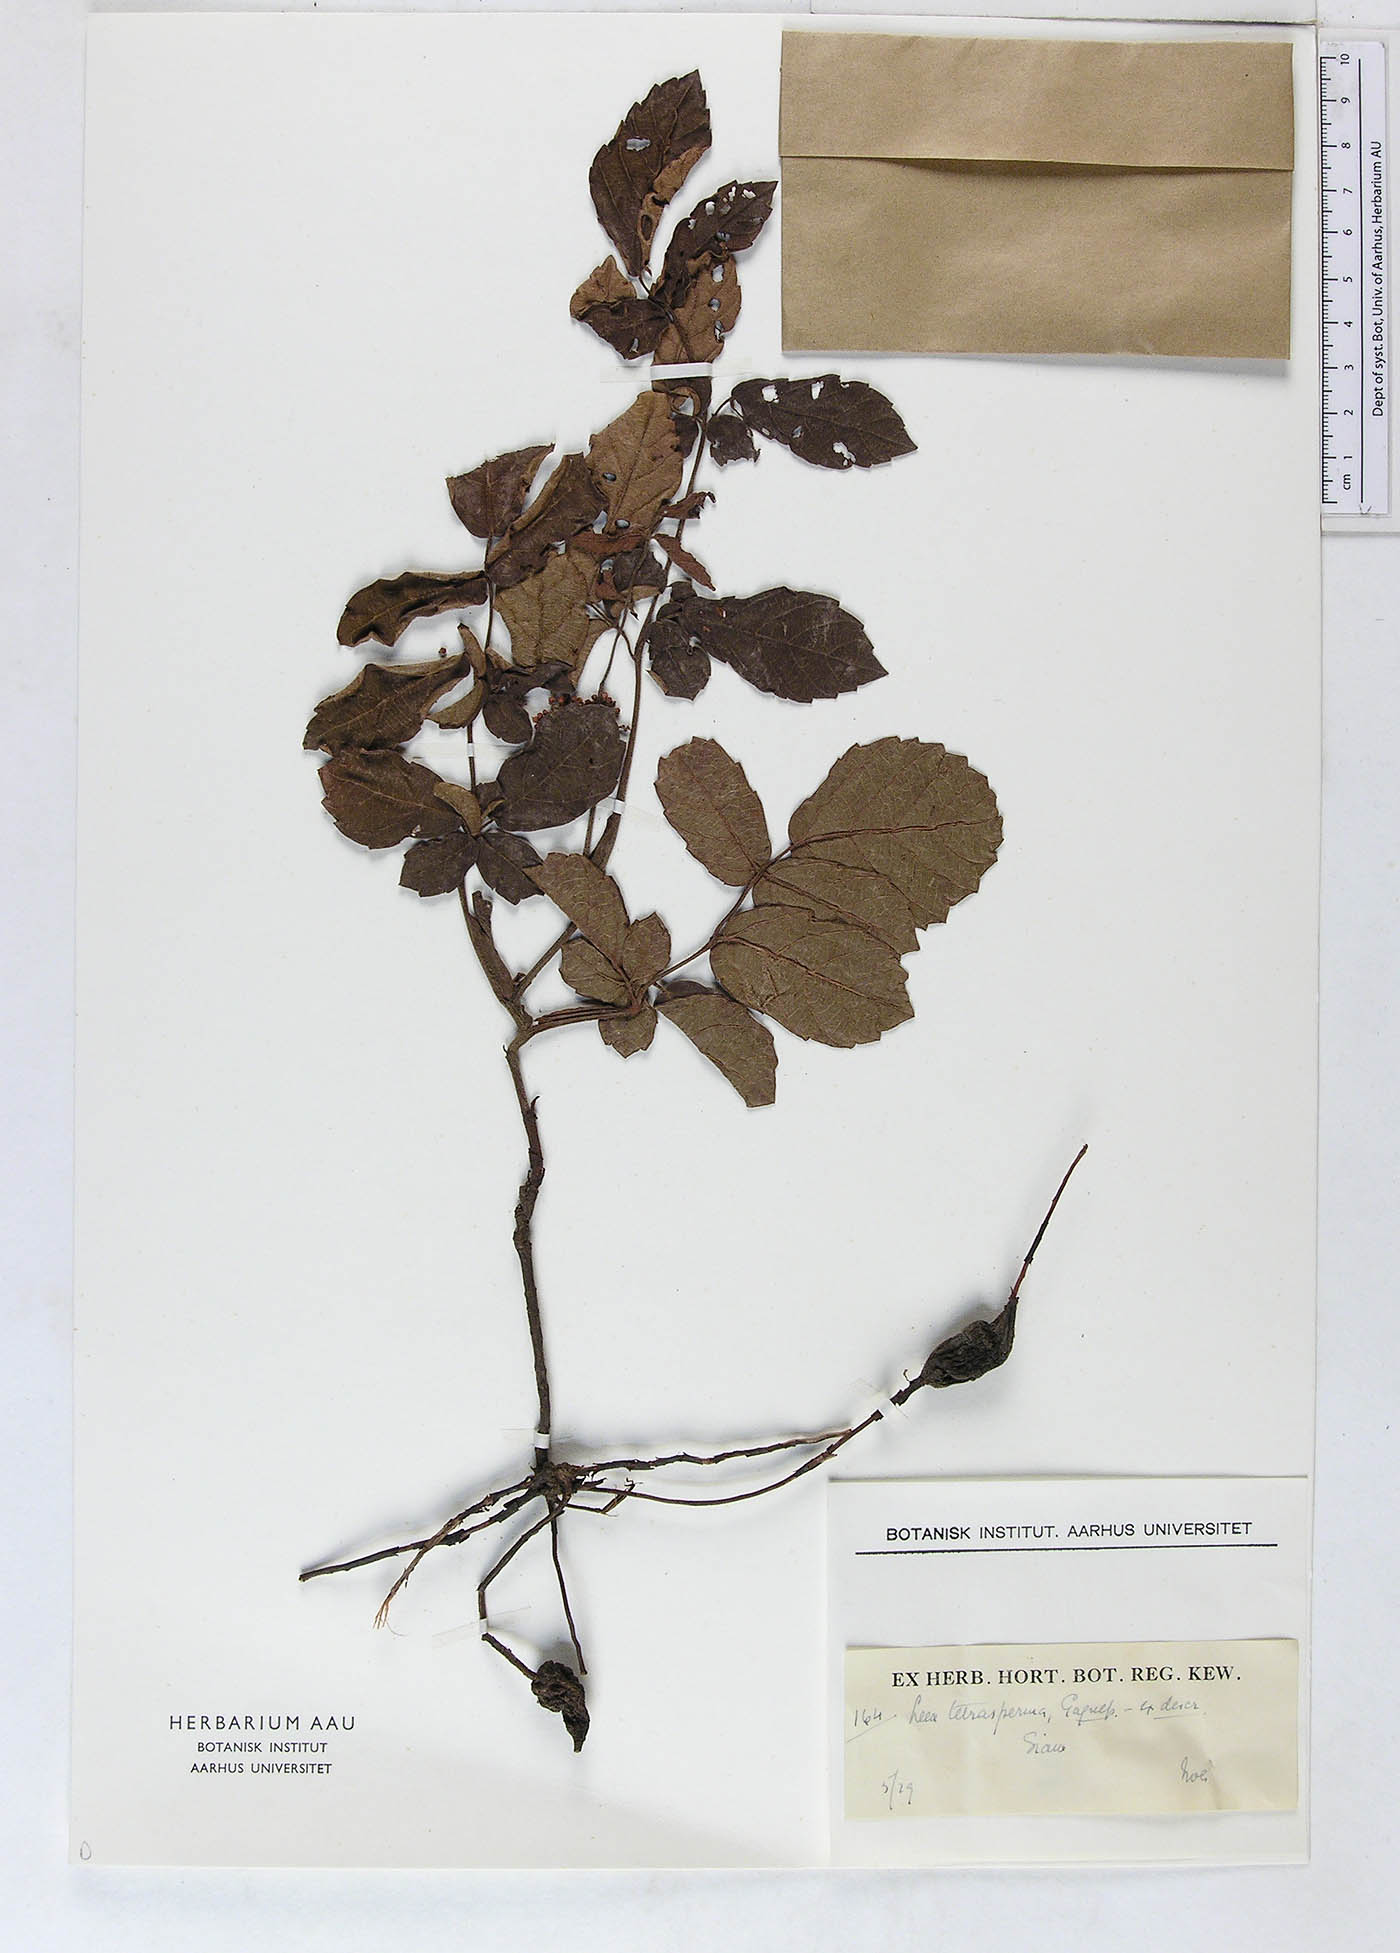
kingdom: Plantae
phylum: Tracheophyta
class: Magnoliopsida
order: Vitales
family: Vitaceae
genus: Leea
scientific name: Leea thorelii
